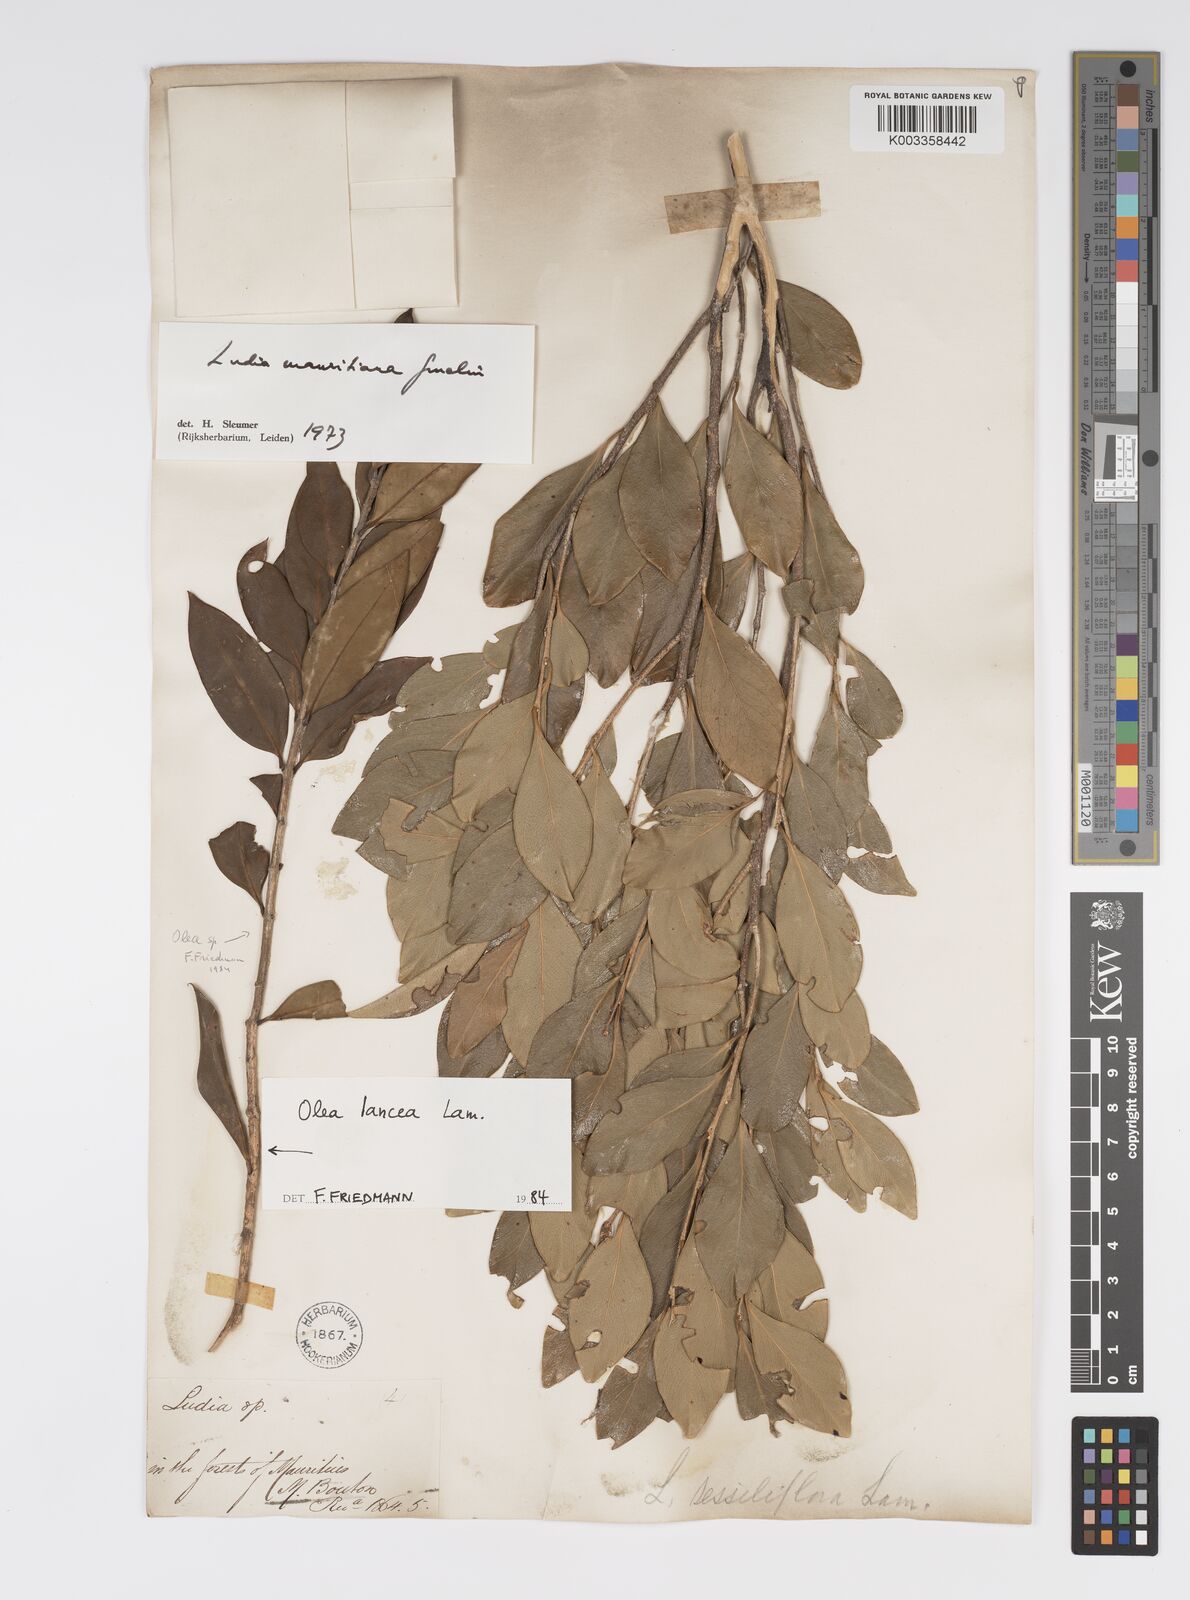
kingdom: Plantae
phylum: Tracheophyta
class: Magnoliopsida
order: Malpighiales
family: Salicaceae
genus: Ludia
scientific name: Ludia mauritiana
